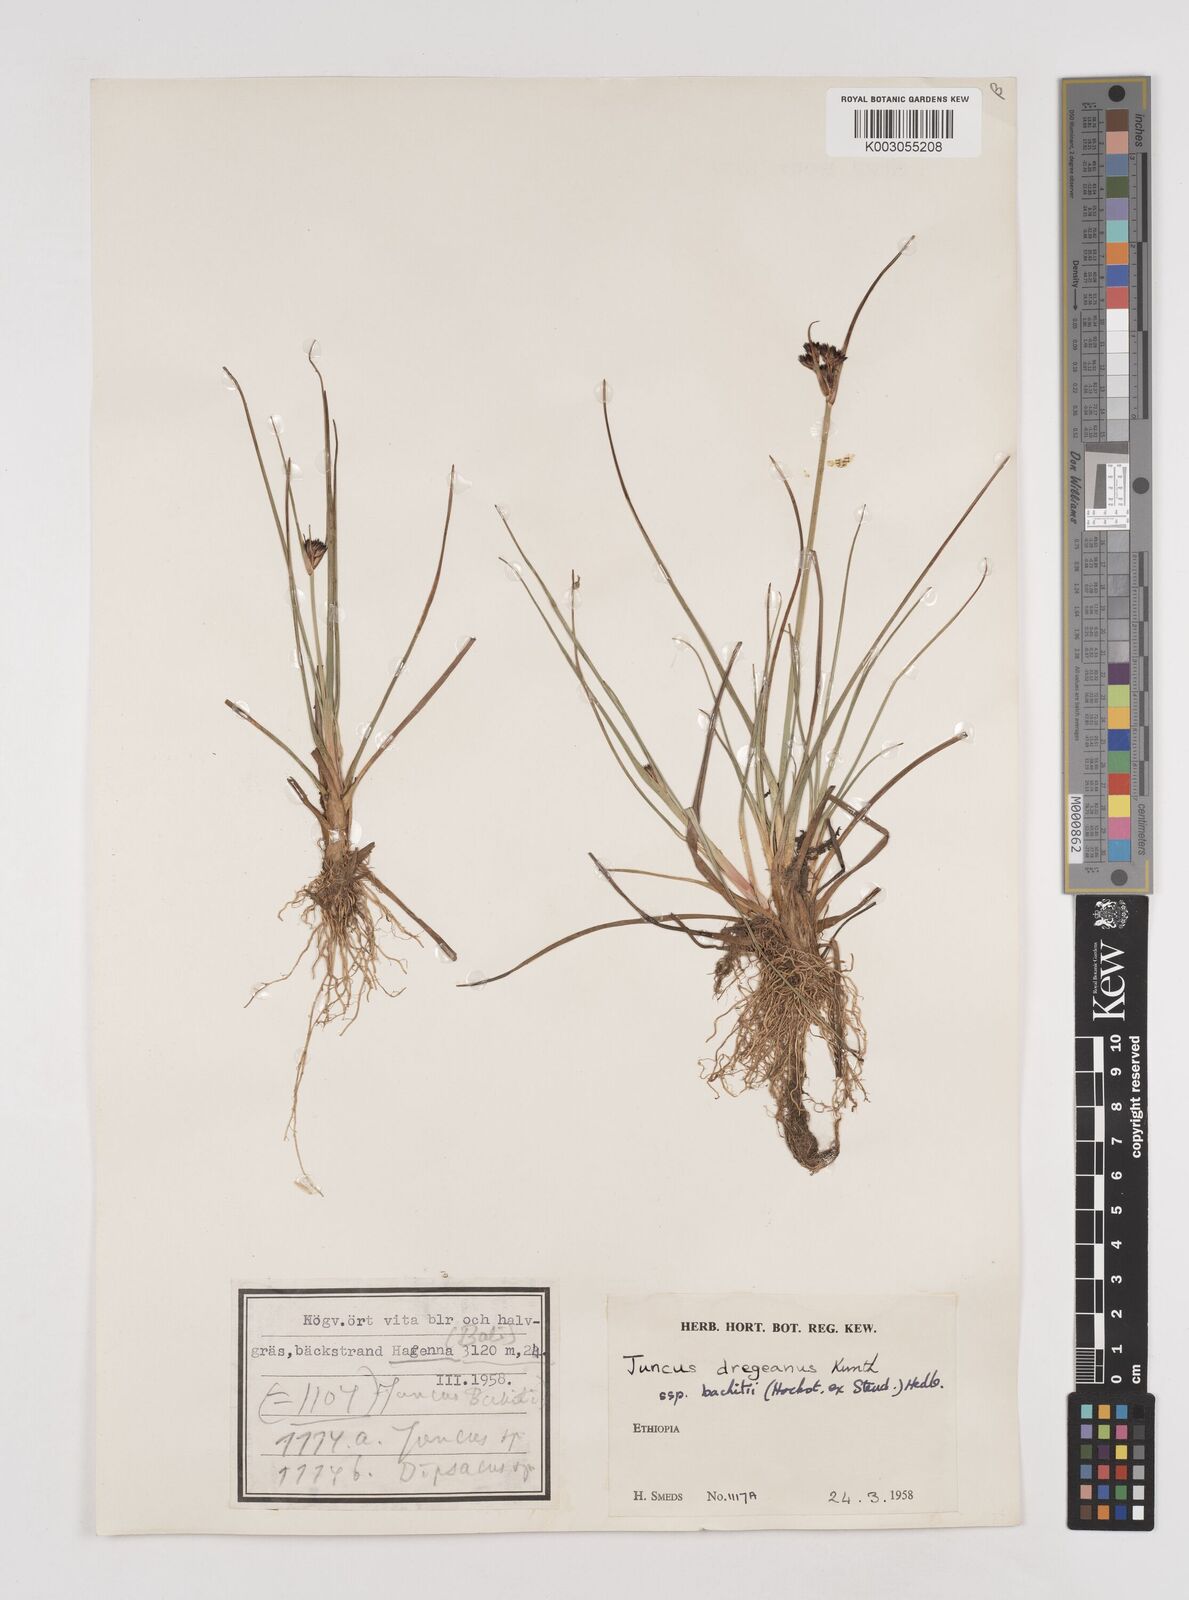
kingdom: Plantae
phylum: Tracheophyta
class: Liliopsida
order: Poales
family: Juncaceae
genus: Juncus
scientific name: Juncus dregeanus
